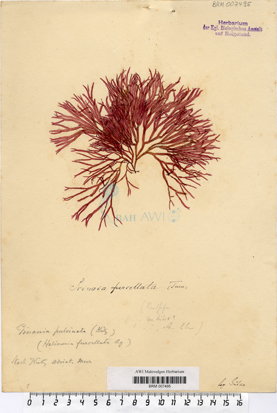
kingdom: Plantae
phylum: Rhodophyta
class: Florideophyceae
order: Nemaliales
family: Scinaiaceae
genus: Scinaia
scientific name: Scinaia furcellata
